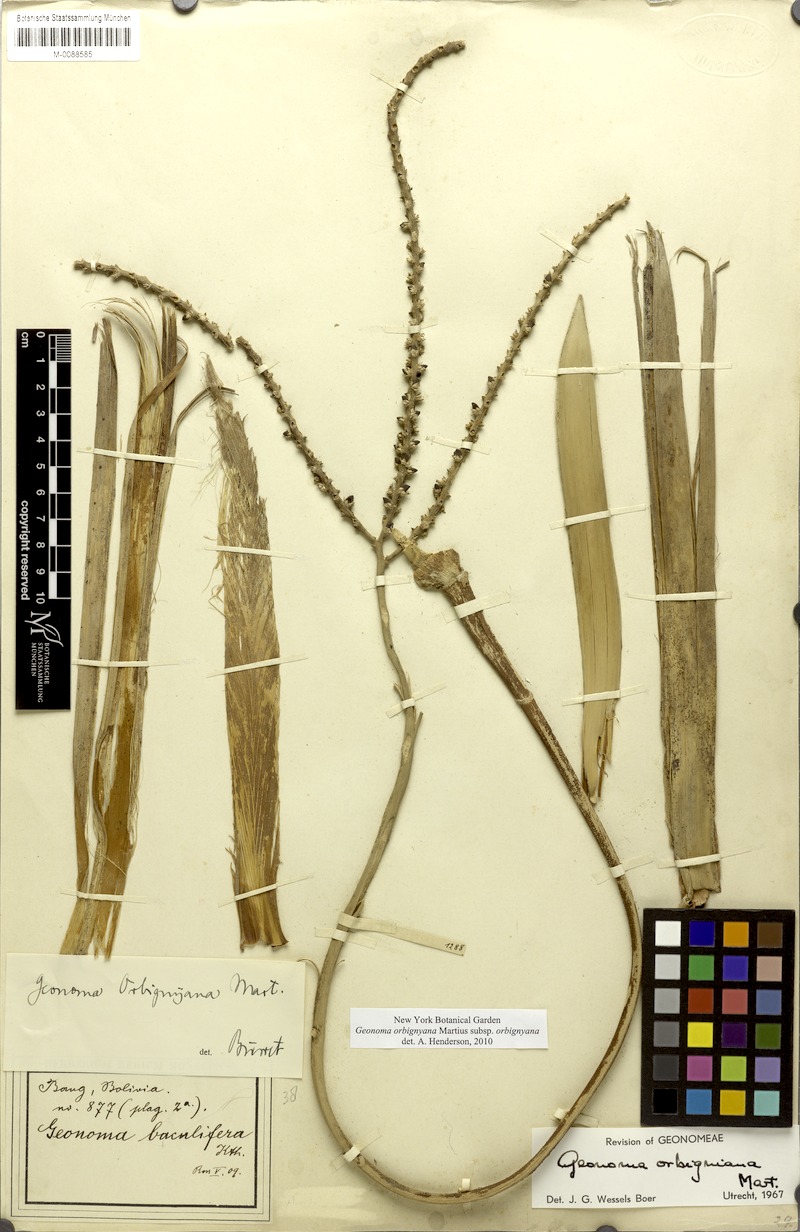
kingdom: Plantae
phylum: Tracheophyta
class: Liliopsida
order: Arecales
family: Arecaceae
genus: Geonoma
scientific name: Geonoma orbignyana
